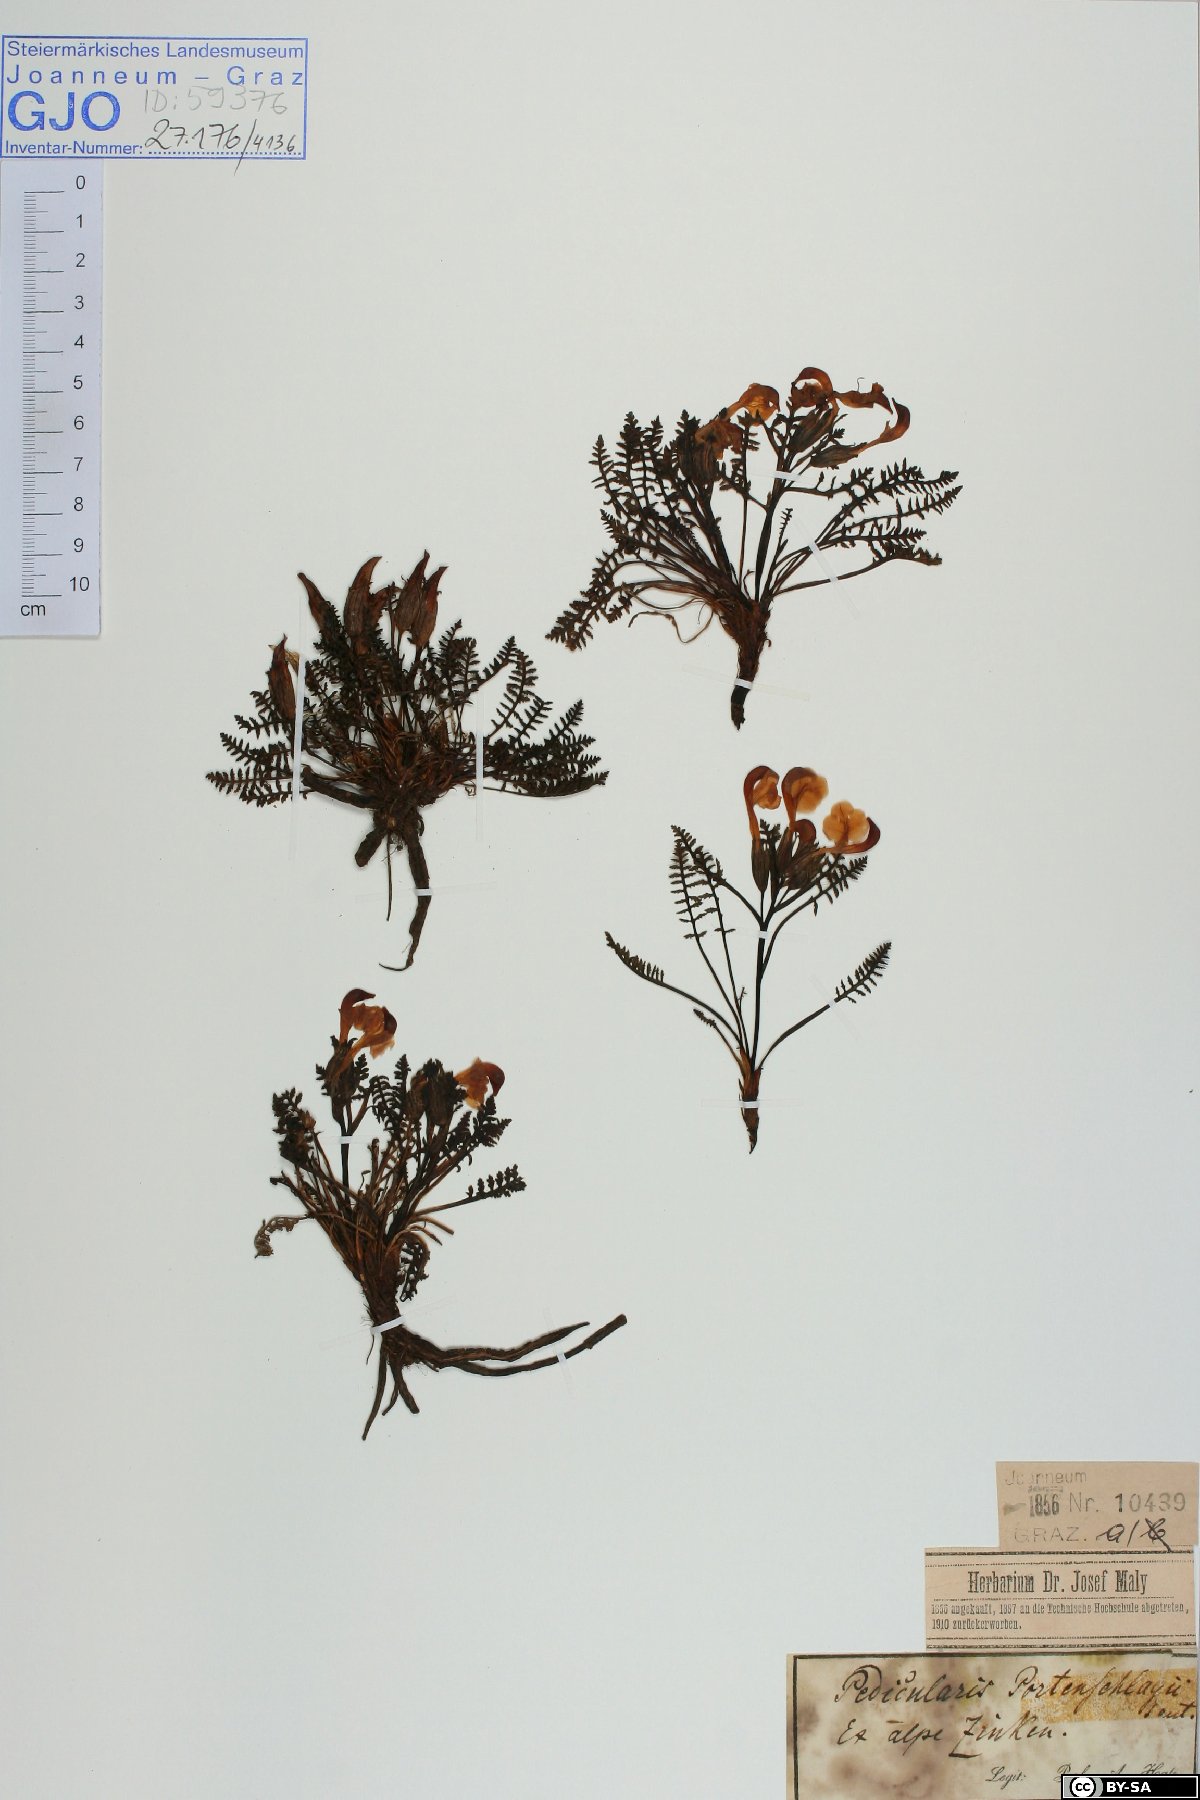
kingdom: Plantae
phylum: Tracheophyta
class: Magnoliopsida
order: Lamiales
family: Orobanchaceae
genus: Pedicularis
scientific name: Pedicularis portenschlagii
